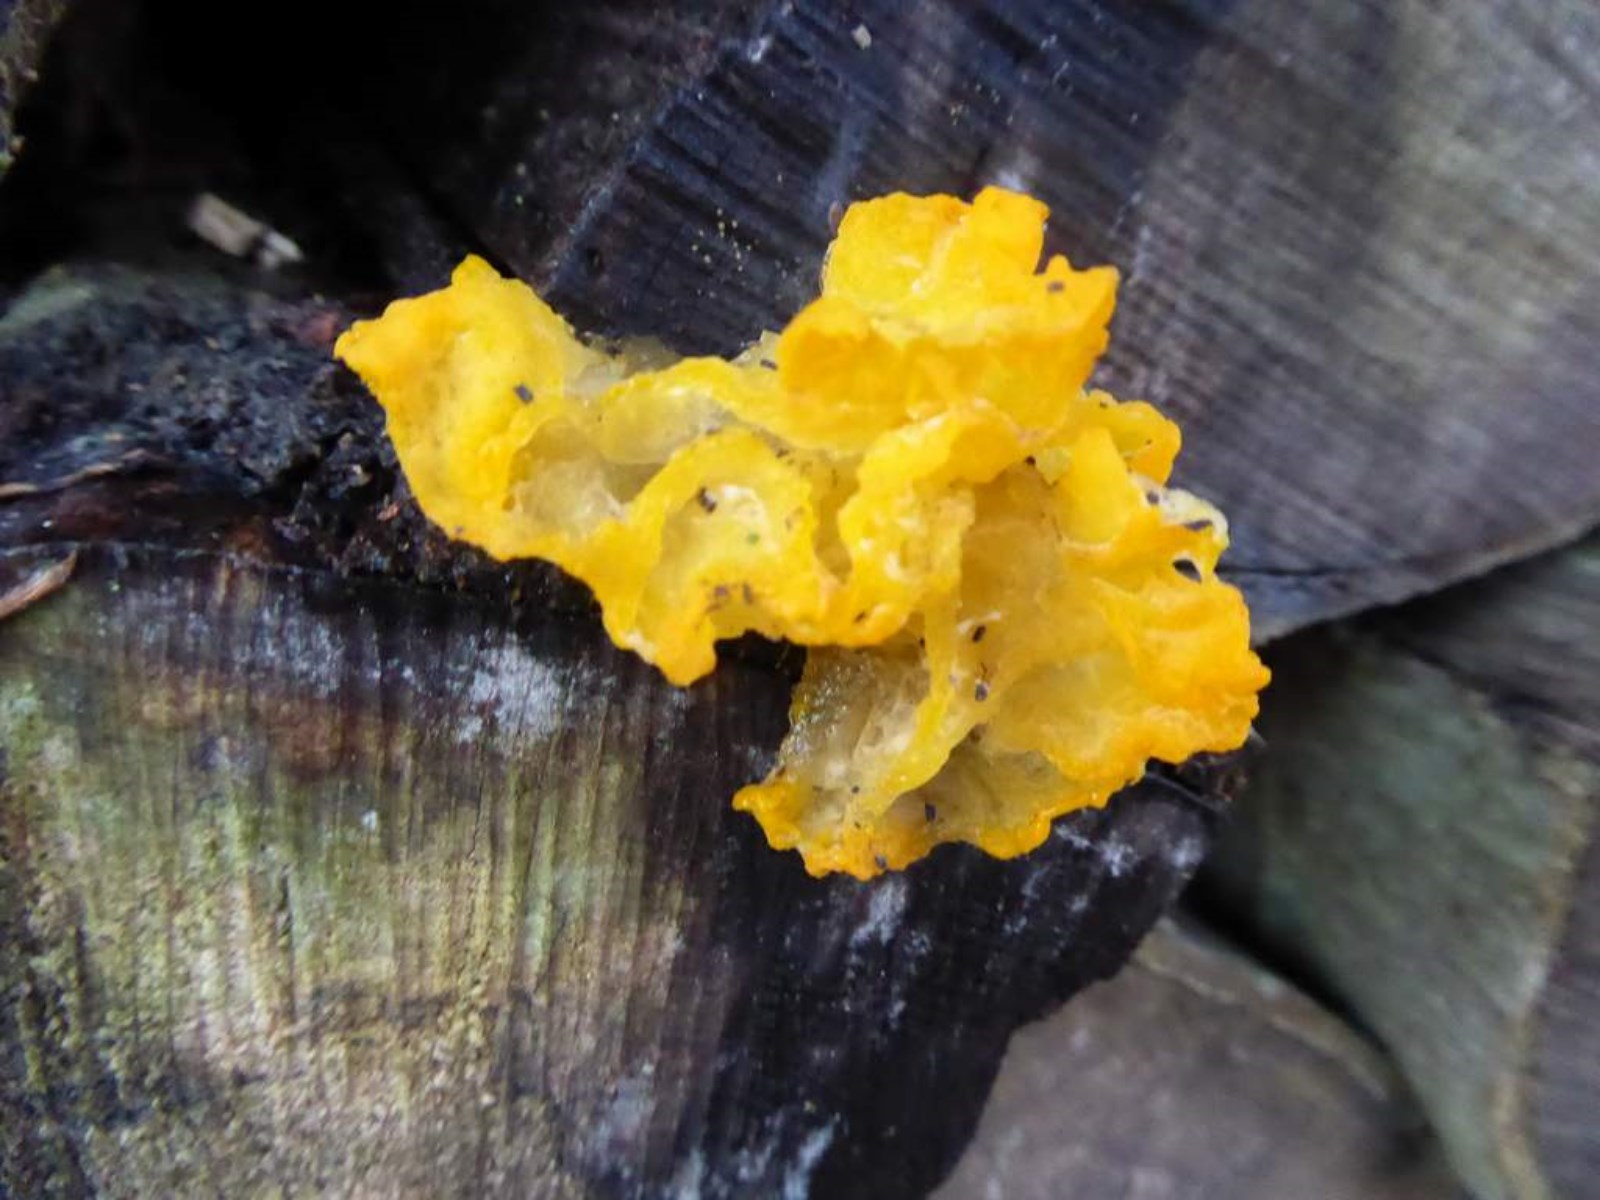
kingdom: Fungi
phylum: Basidiomycota
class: Tremellomycetes
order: Tremellales
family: Tremellaceae
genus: Tremella
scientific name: Tremella mesenterica
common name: gul bævresvamp
